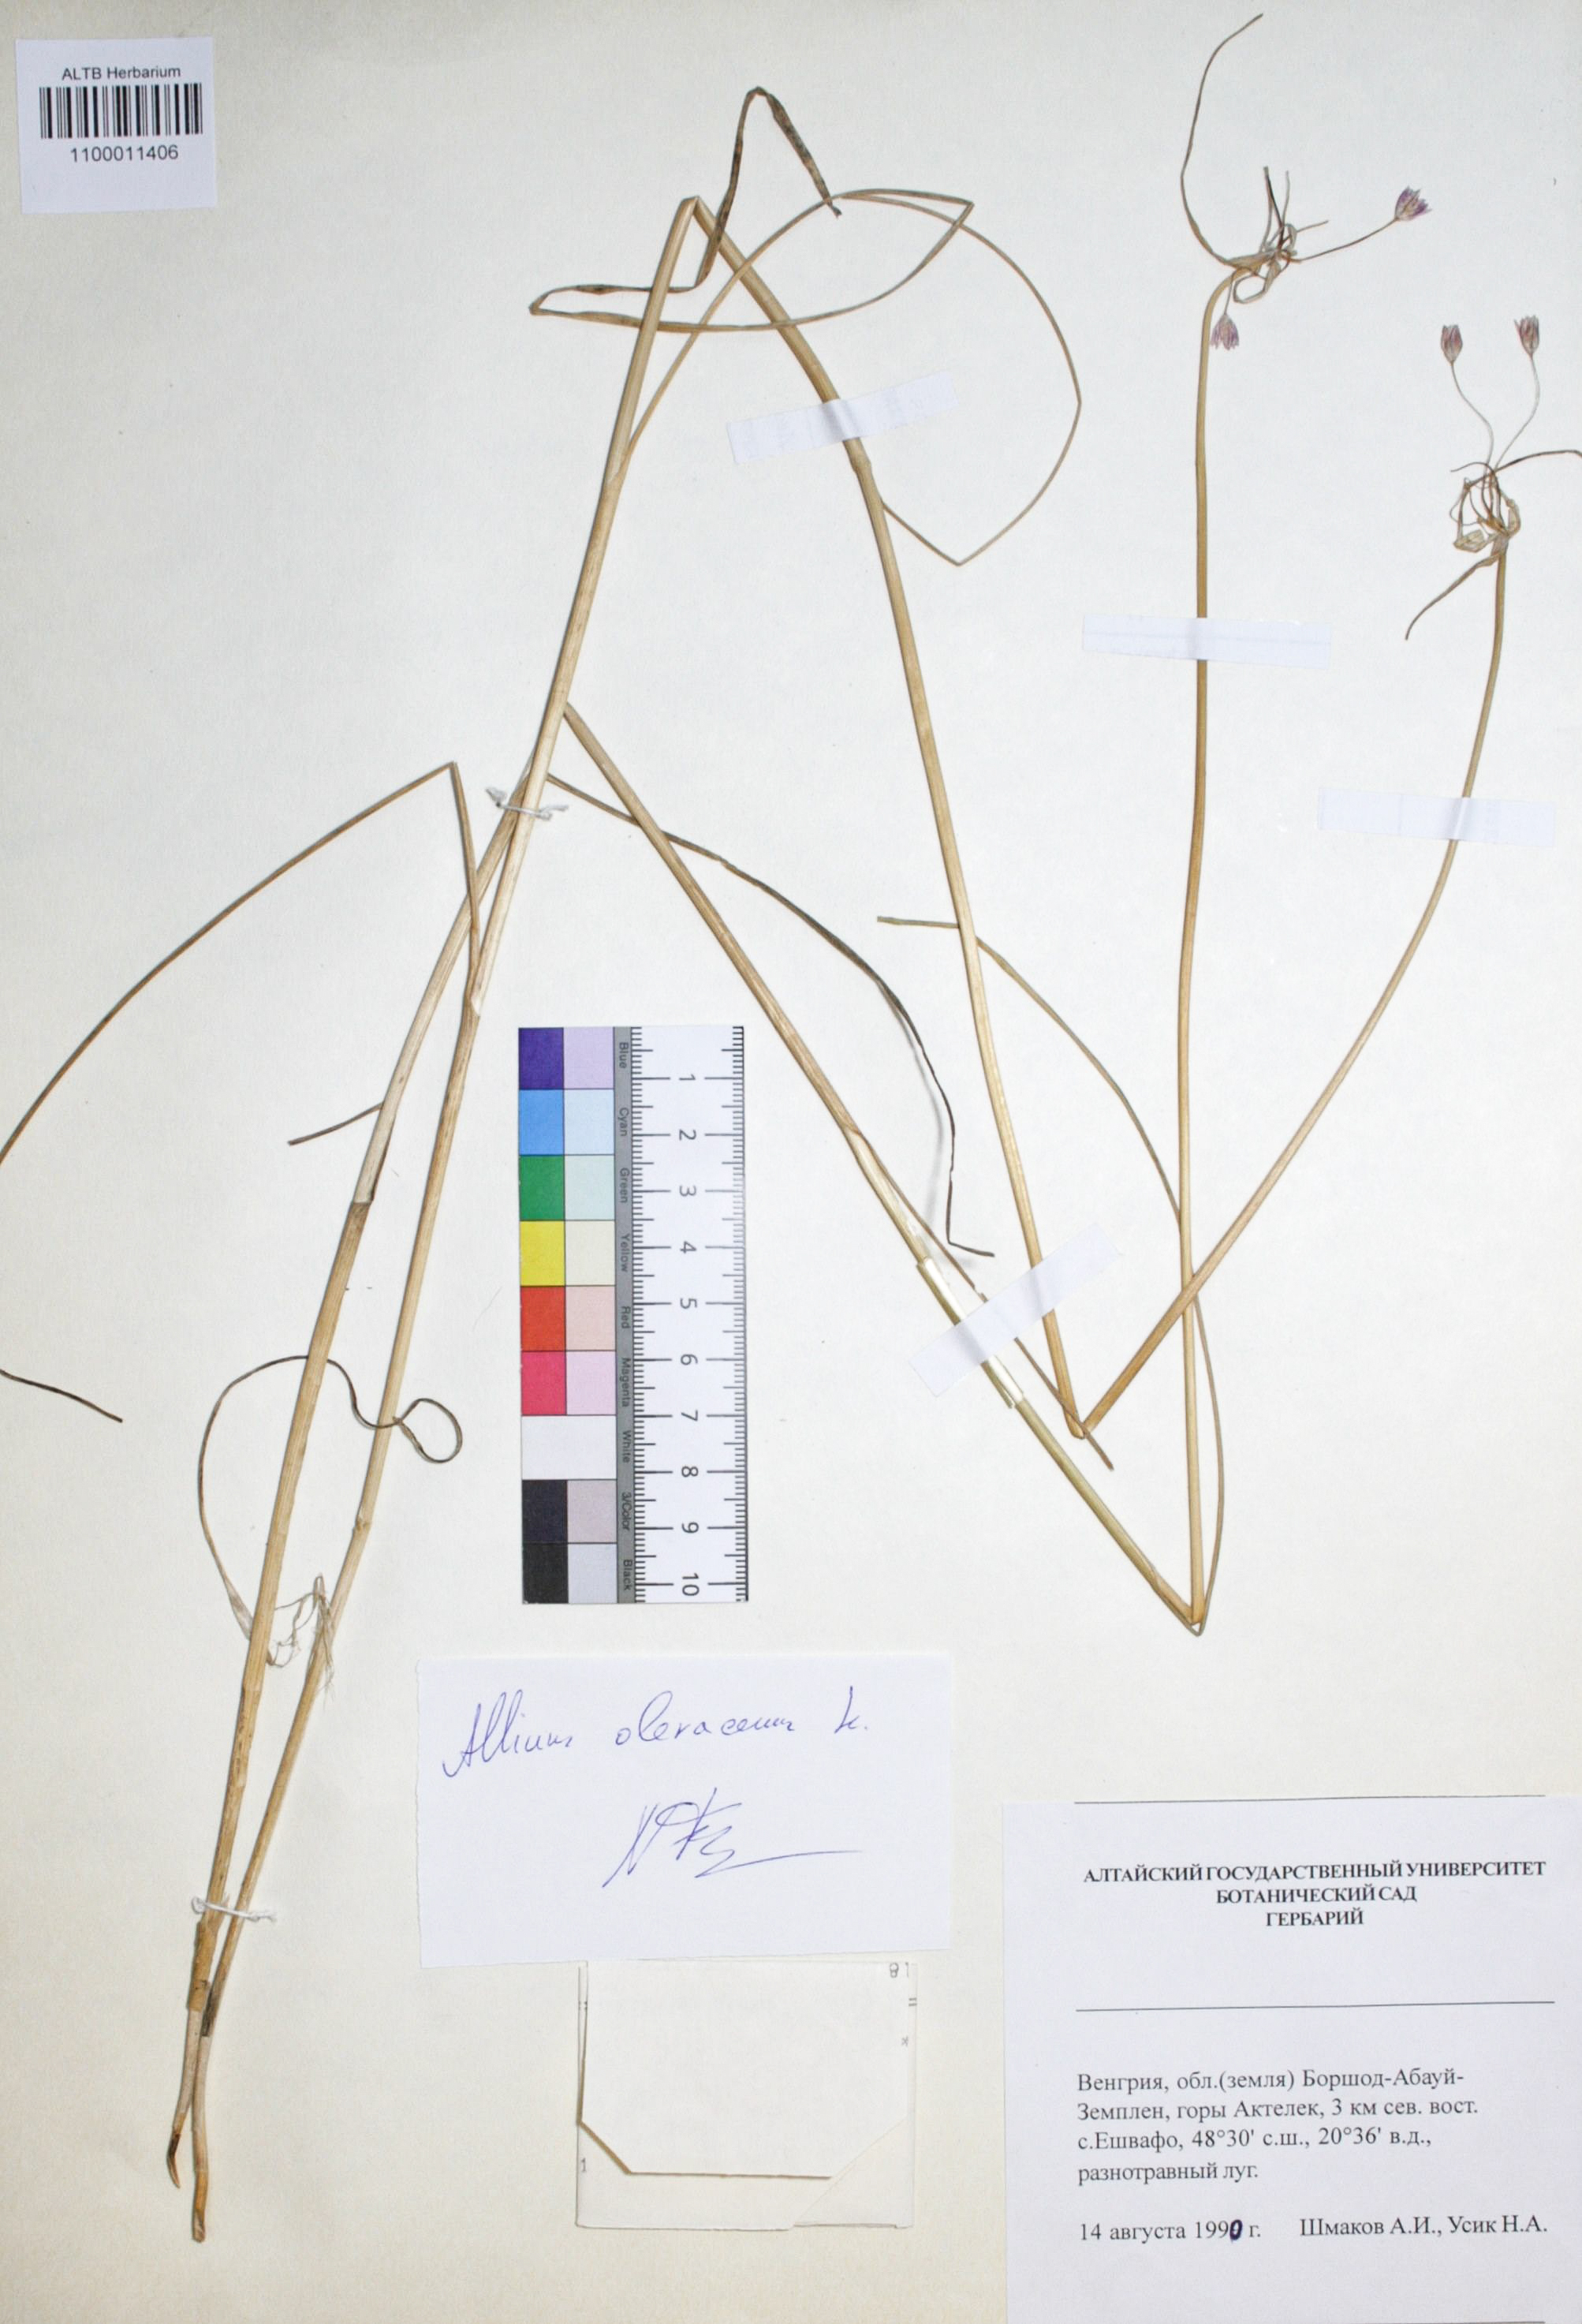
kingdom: Plantae
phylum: Tracheophyta
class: Liliopsida
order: Asparagales
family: Amaryllidaceae
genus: Allium
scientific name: Allium oleraceum
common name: Field garlic
